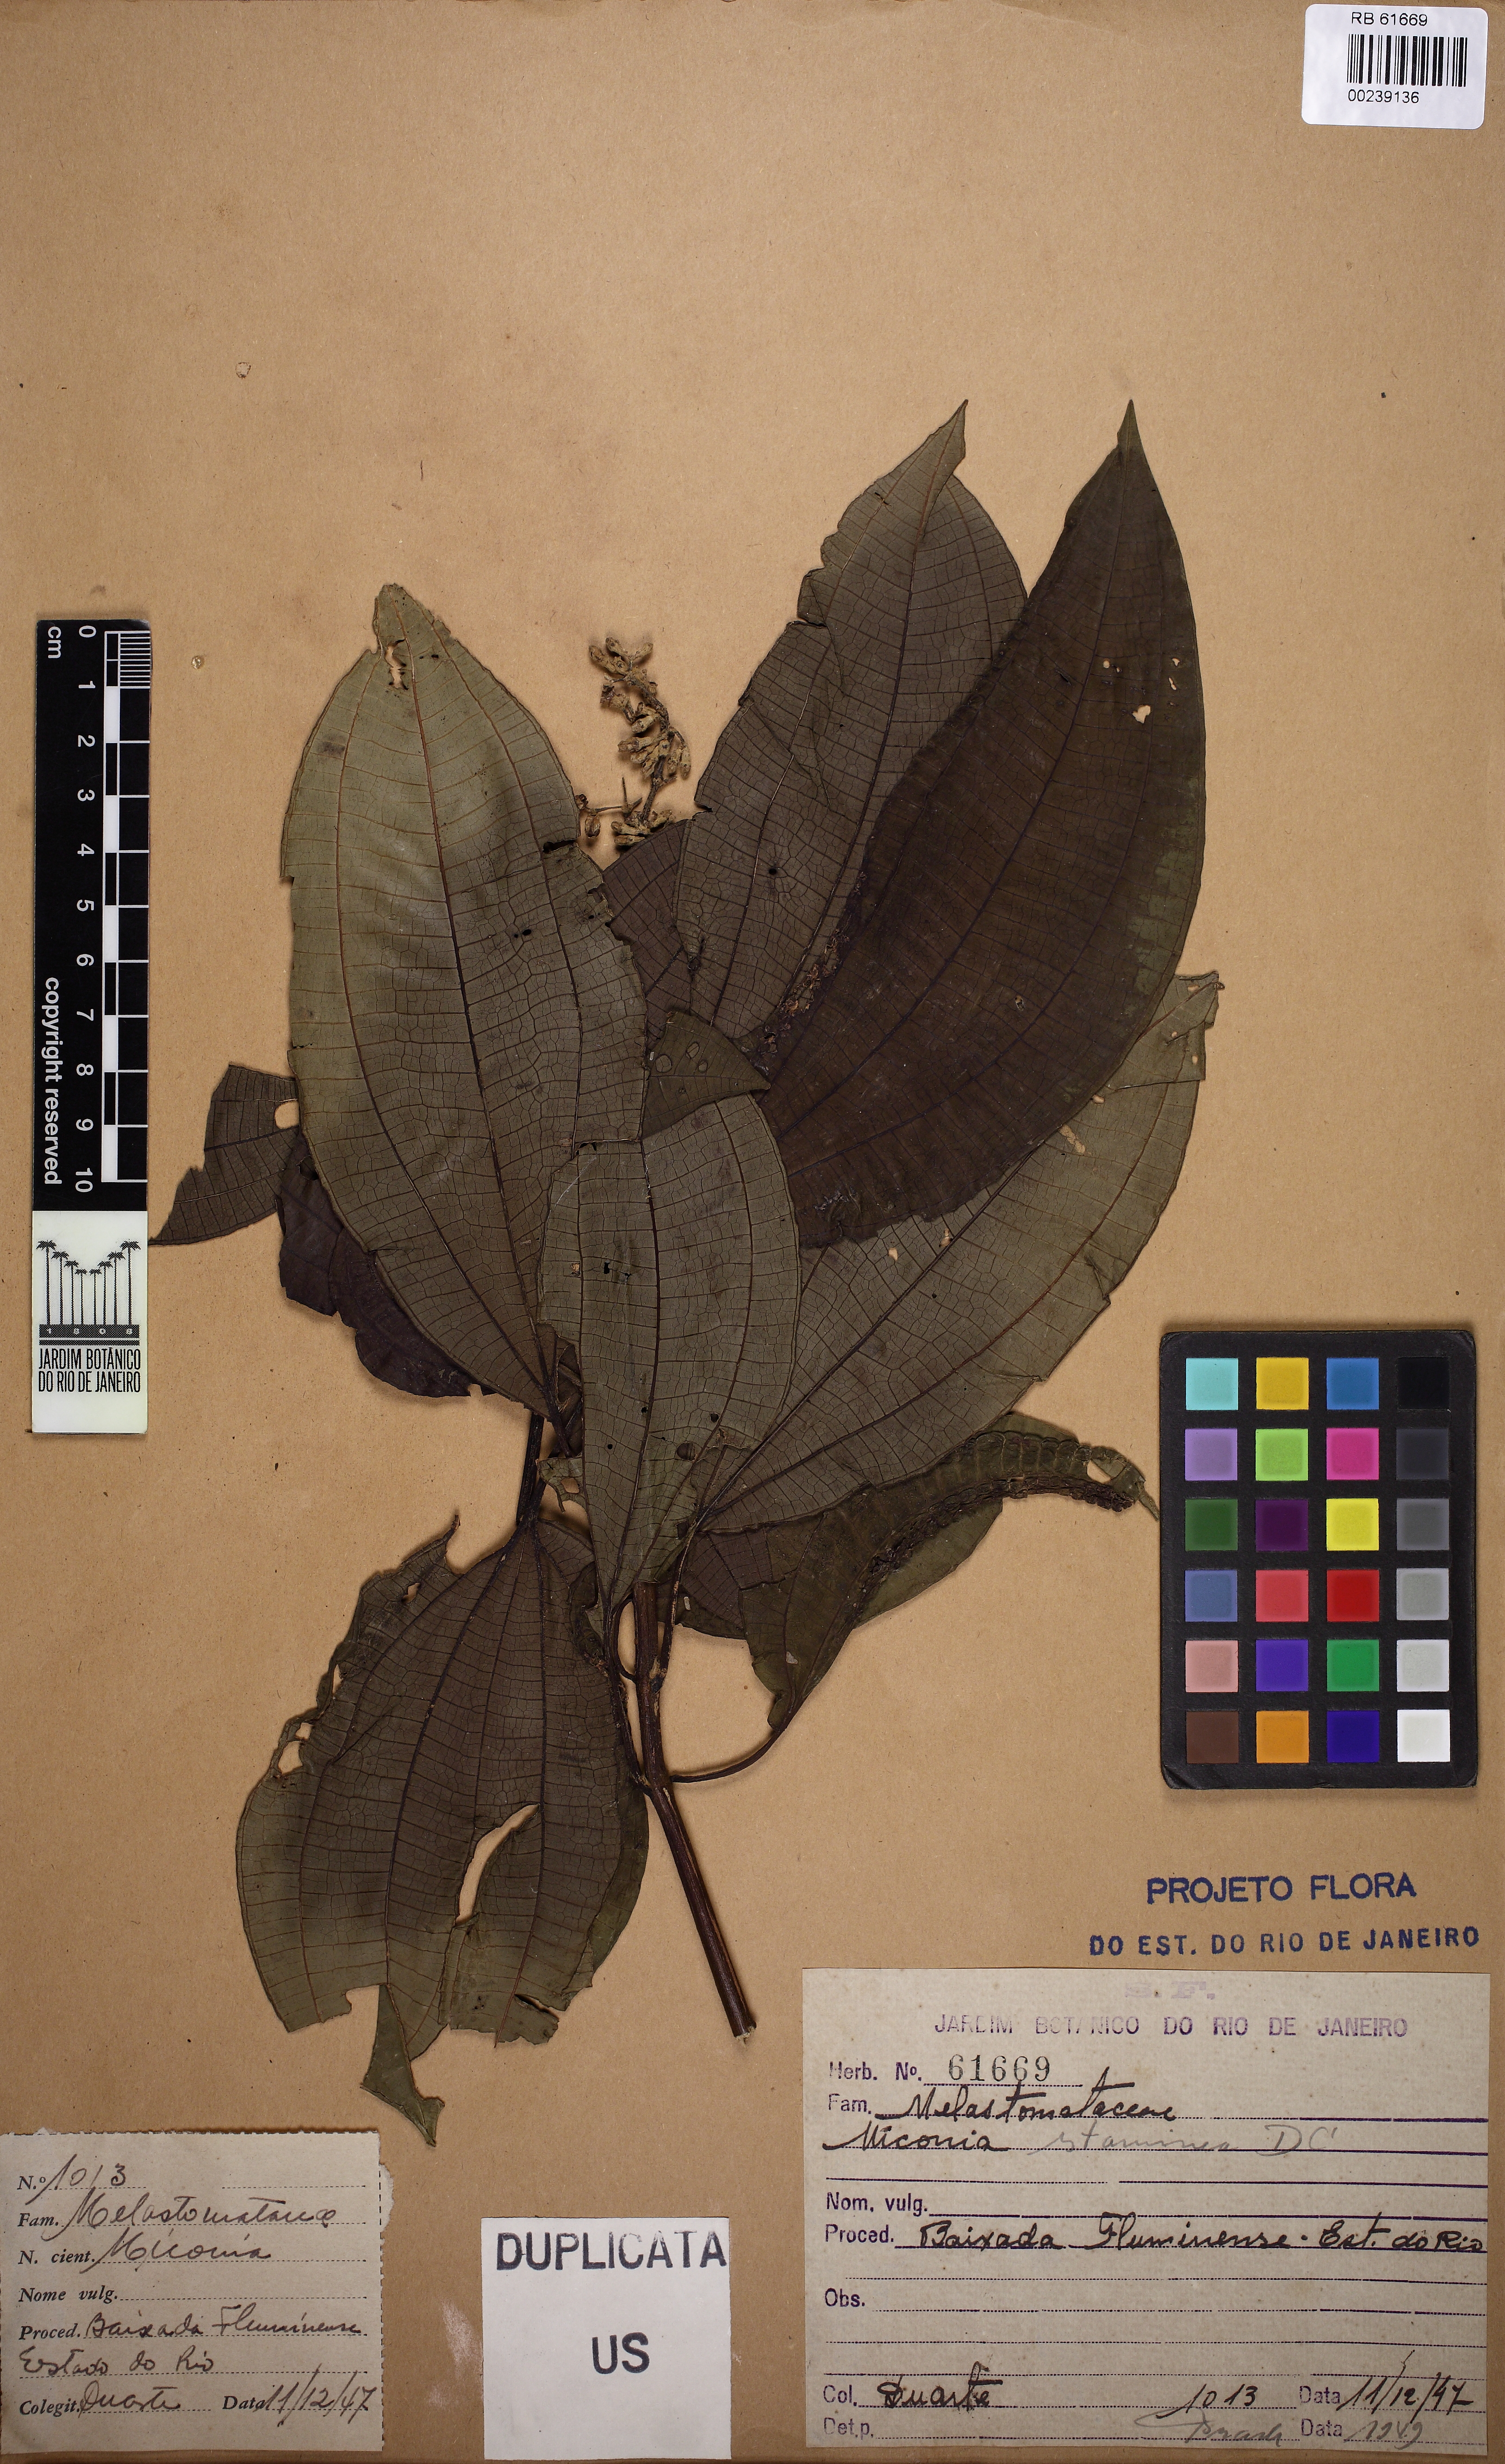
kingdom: Plantae
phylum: Tracheophyta
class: Magnoliopsida
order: Myrtales
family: Melastomataceae
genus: Miconia
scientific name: Miconia staminea
